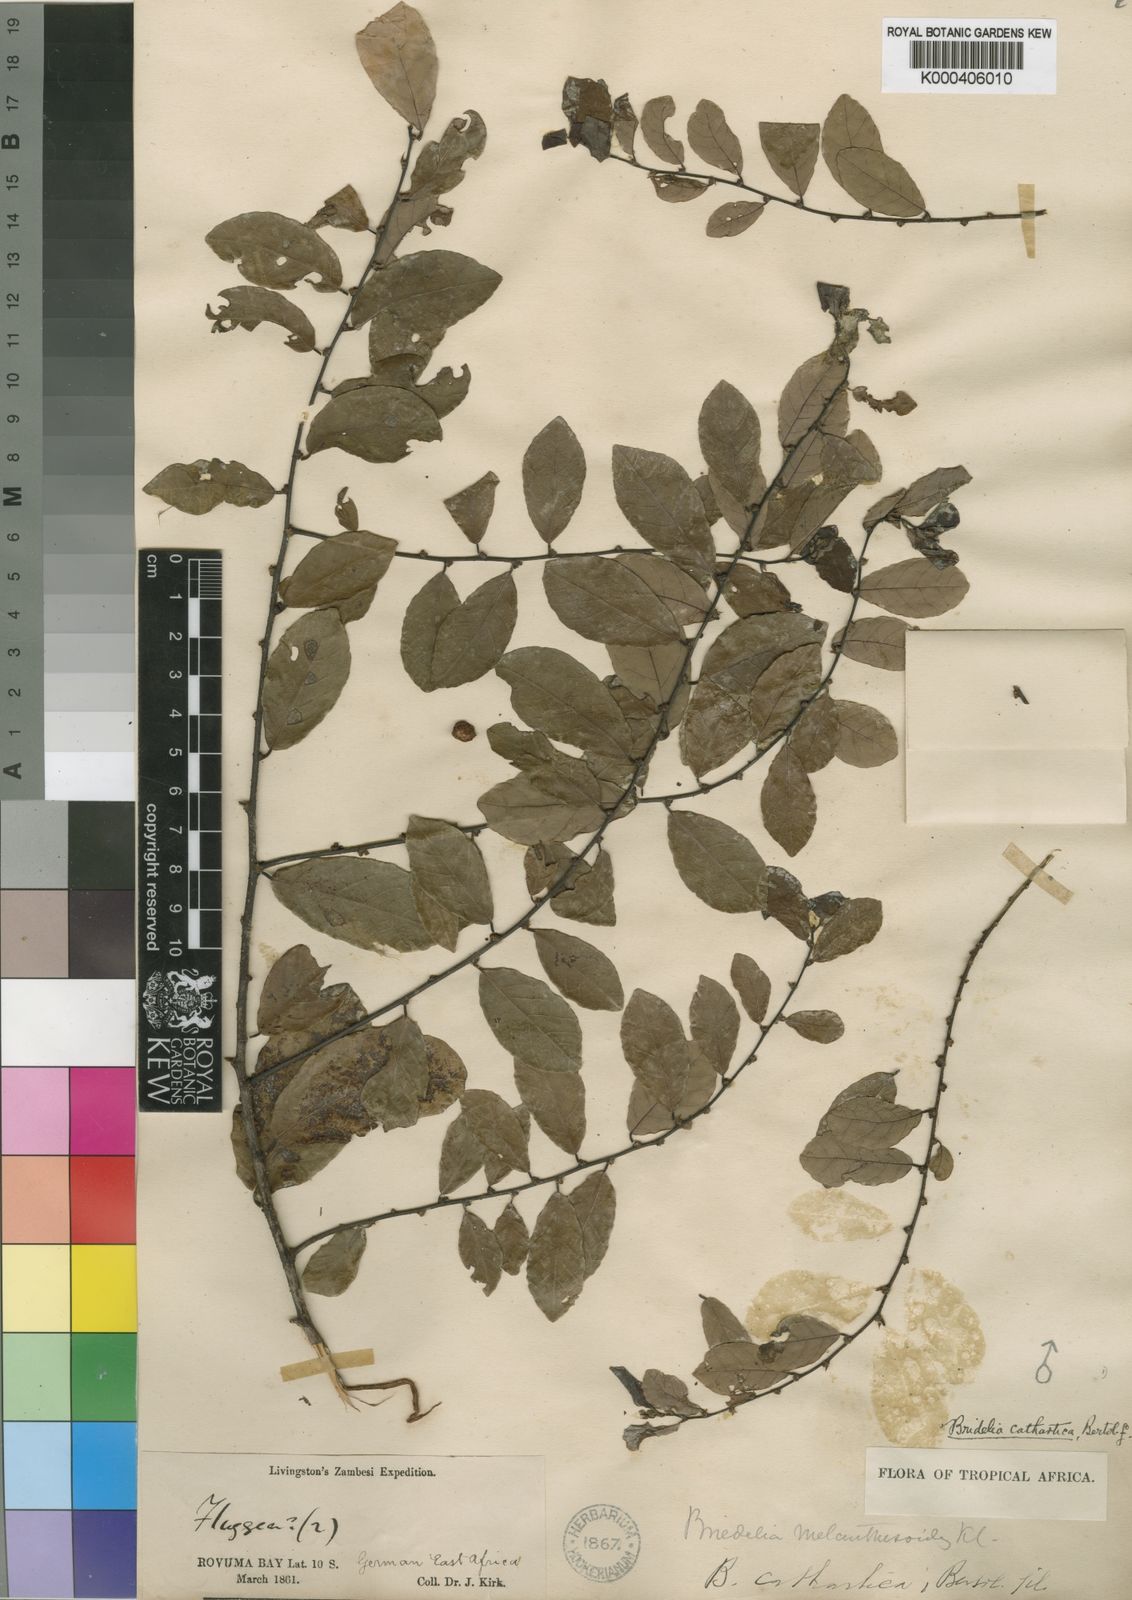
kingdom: Plantae
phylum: Tracheophyta
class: Magnoliopsida
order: Malpighiales
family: Phyllanthaceae
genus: Bridelia
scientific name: Bridelia cathartica
